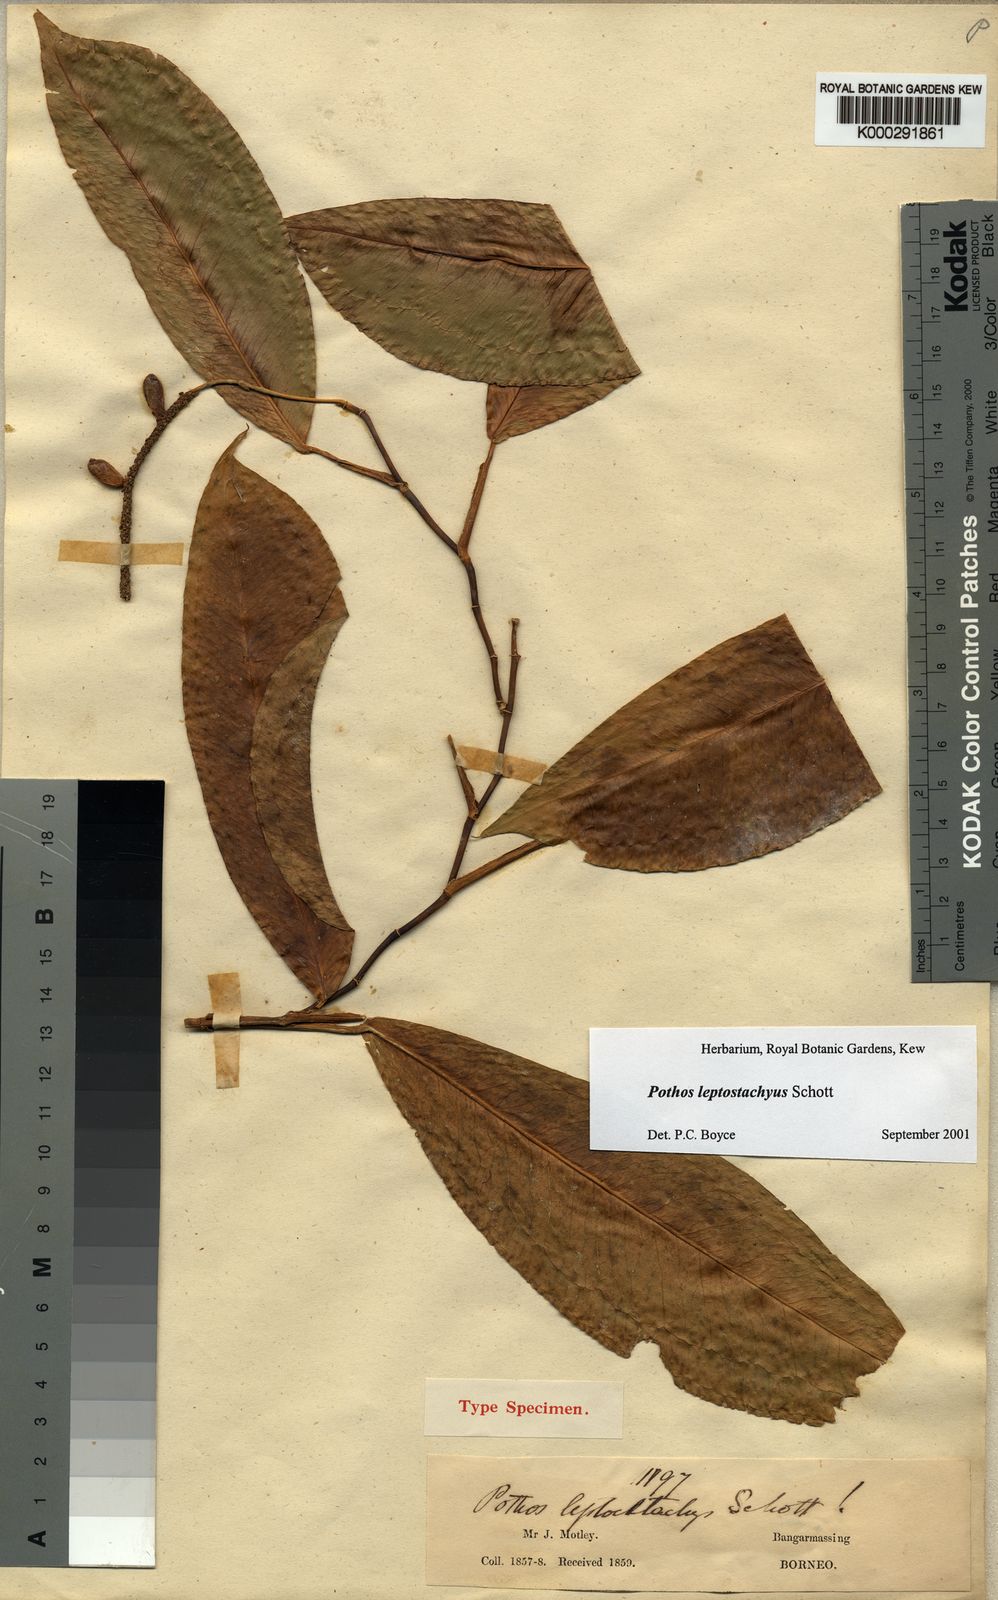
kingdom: Plantae
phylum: Tracheophyta
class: Liliopsida
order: Alismatales
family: Araceae
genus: Pothos
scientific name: Pothos leptostachyus
